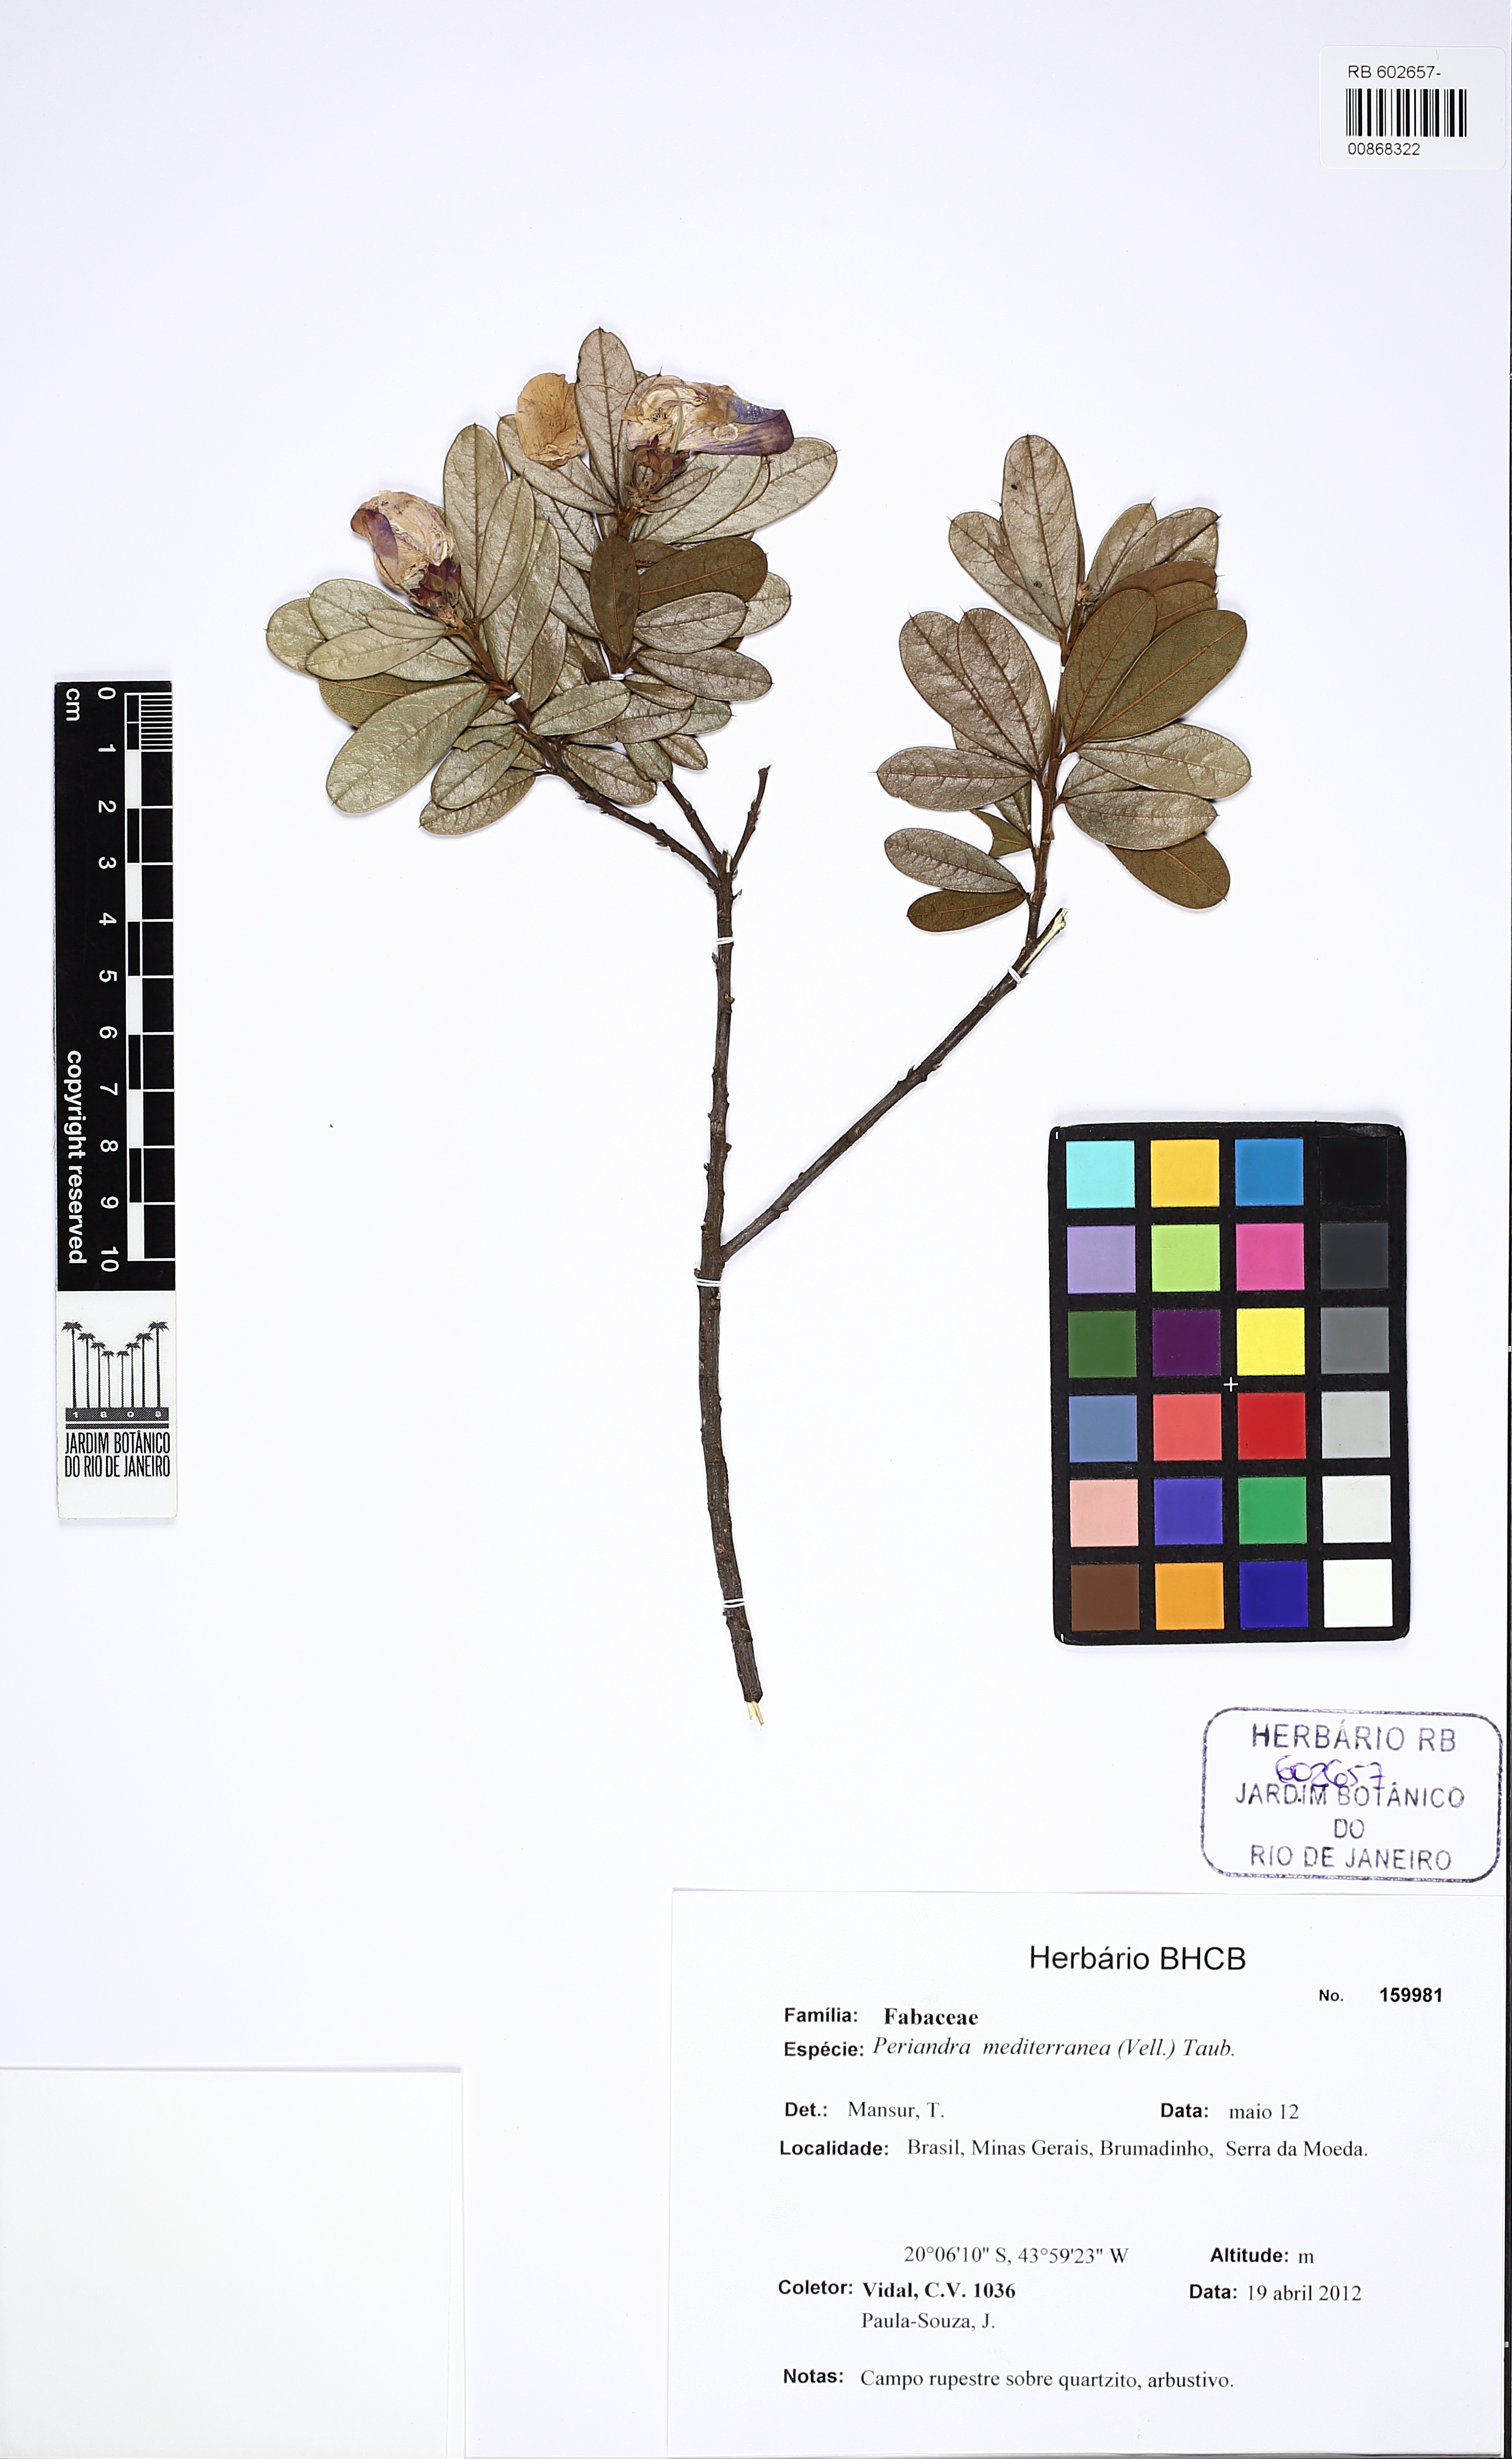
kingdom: Plantae
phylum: Tracheophyta
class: Magnoliopsida
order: Fabales
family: Fabaceae
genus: Periandra
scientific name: Periandra mediterranea
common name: Brazilian licorice
